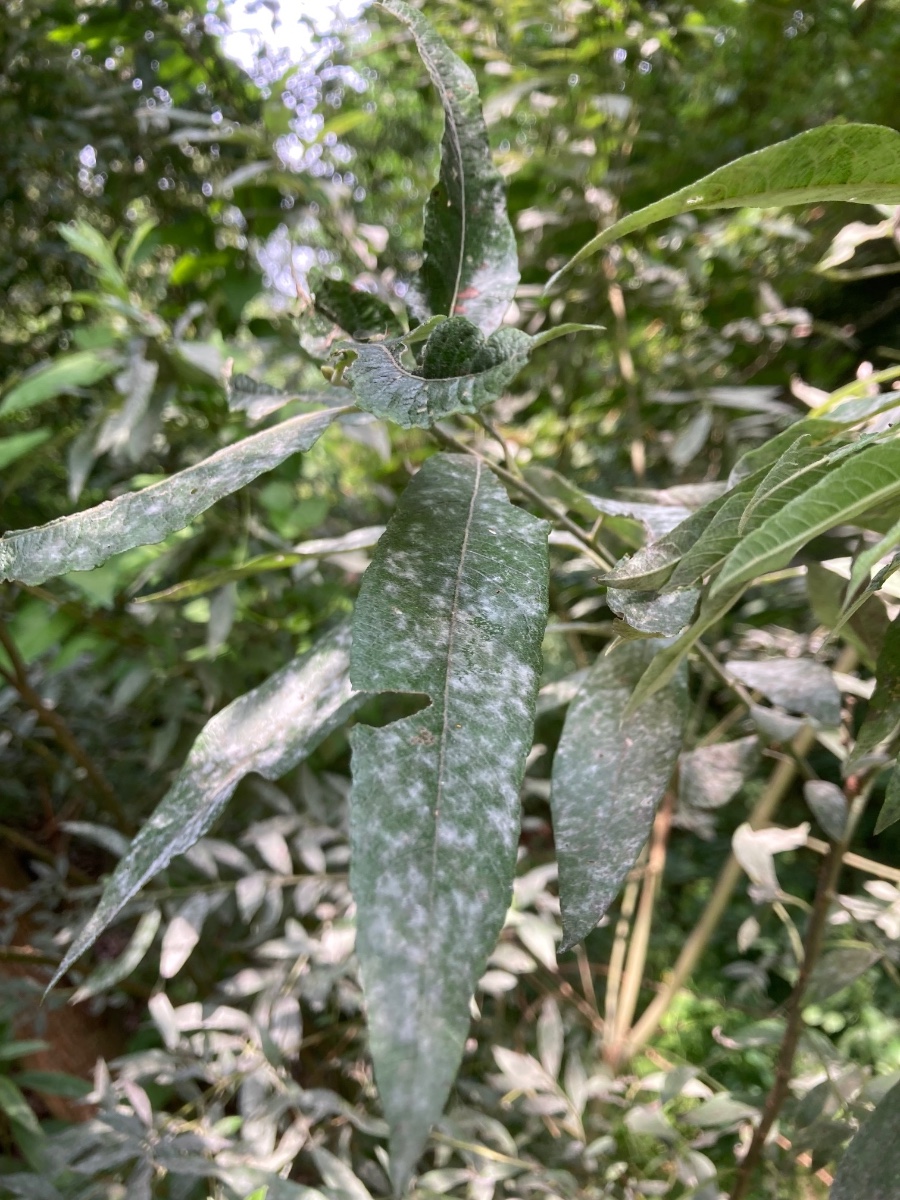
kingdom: Fungi
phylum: Ascomycota
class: Leotiomycetes
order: Helotiales
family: Erysiphaceae
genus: Erysiphe
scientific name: Erysiphe adunca
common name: pile-meldug
